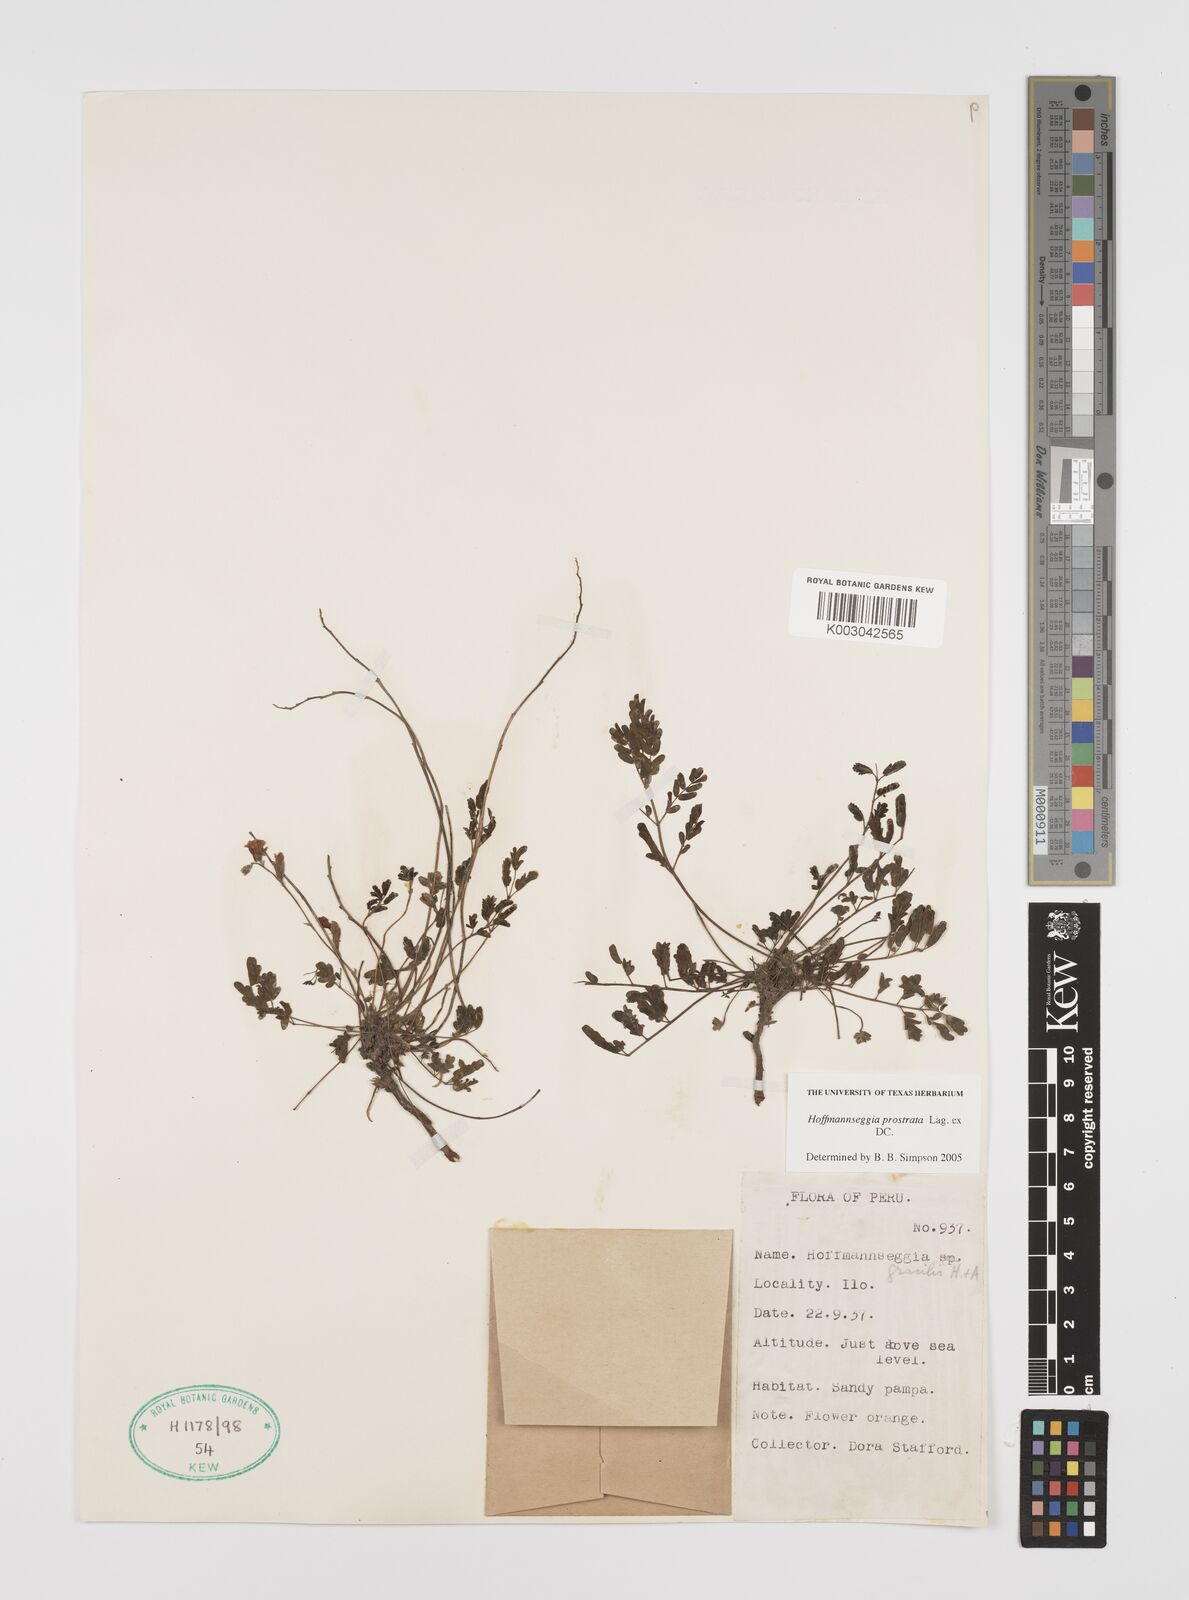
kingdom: Plantae
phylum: Tracheophyta
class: Magnoliopsida
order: Fabales
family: Fabaceae
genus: Hoffmannseggia
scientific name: Hoffmannseggia prostrata
